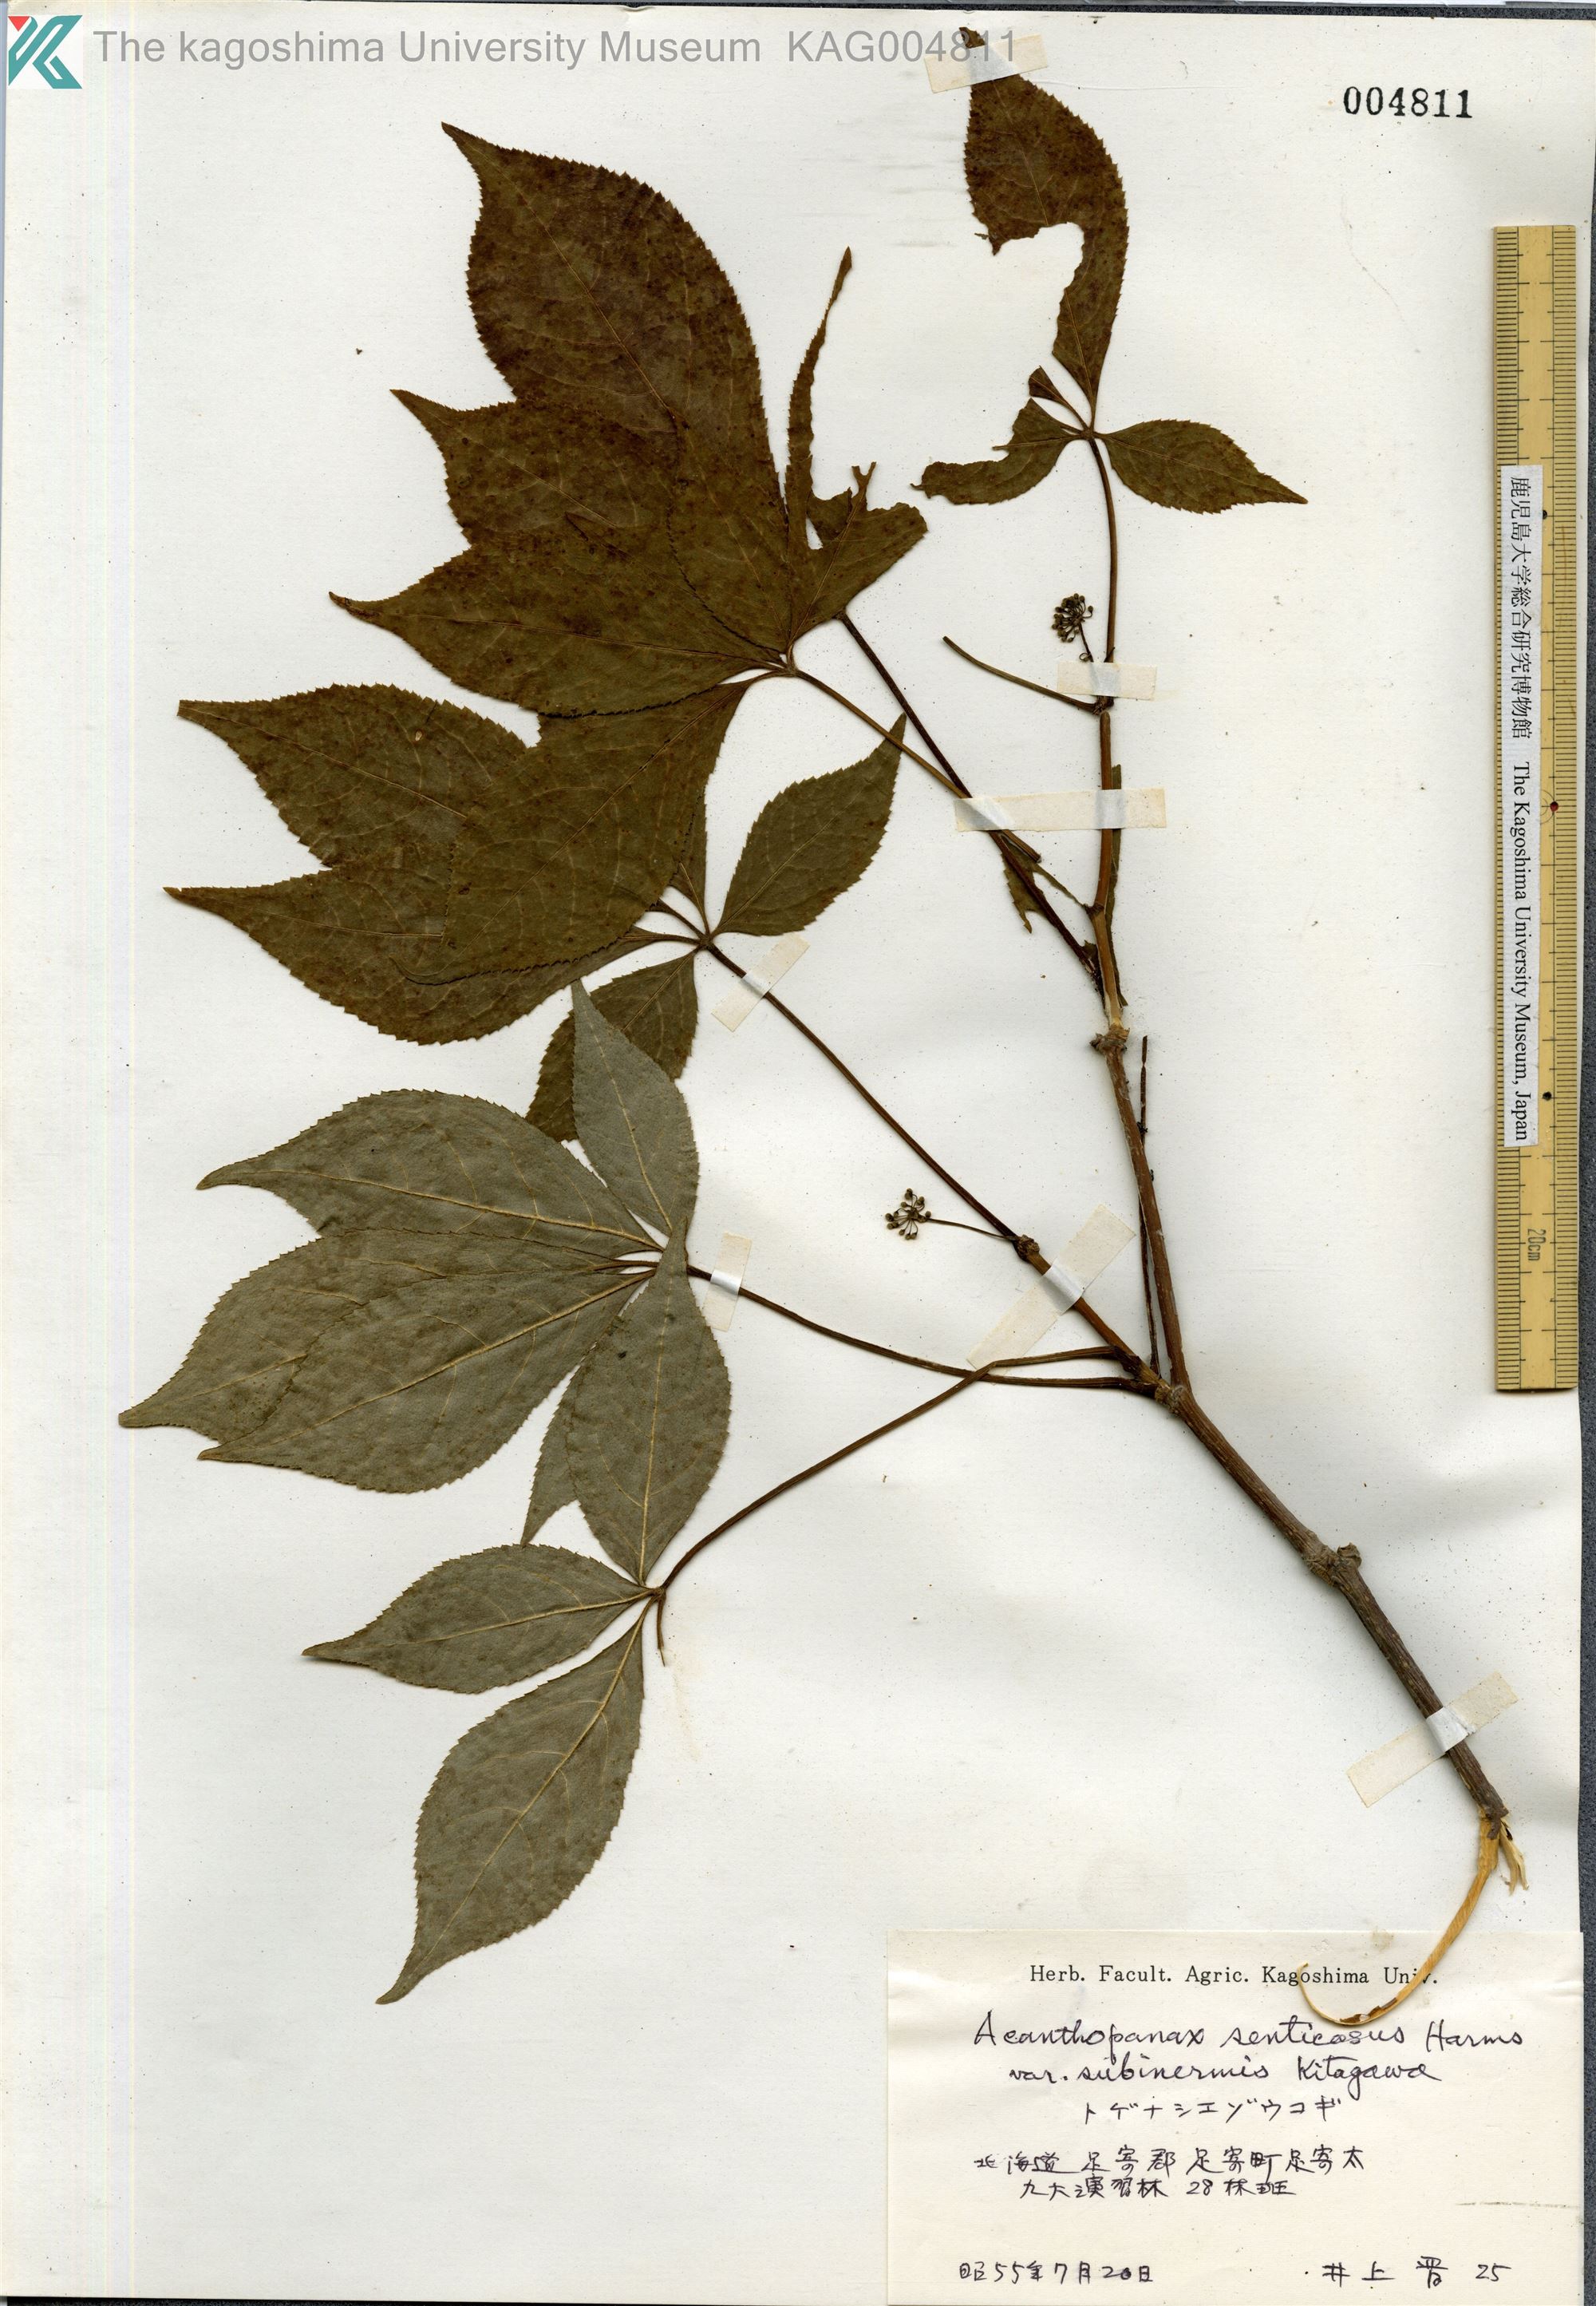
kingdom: Plantae
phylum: Tracheophyta
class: Magnoliopsida
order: Apiales
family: Araliaceae
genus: Eleutherococcus
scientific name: Eleutherococcus senticosus
